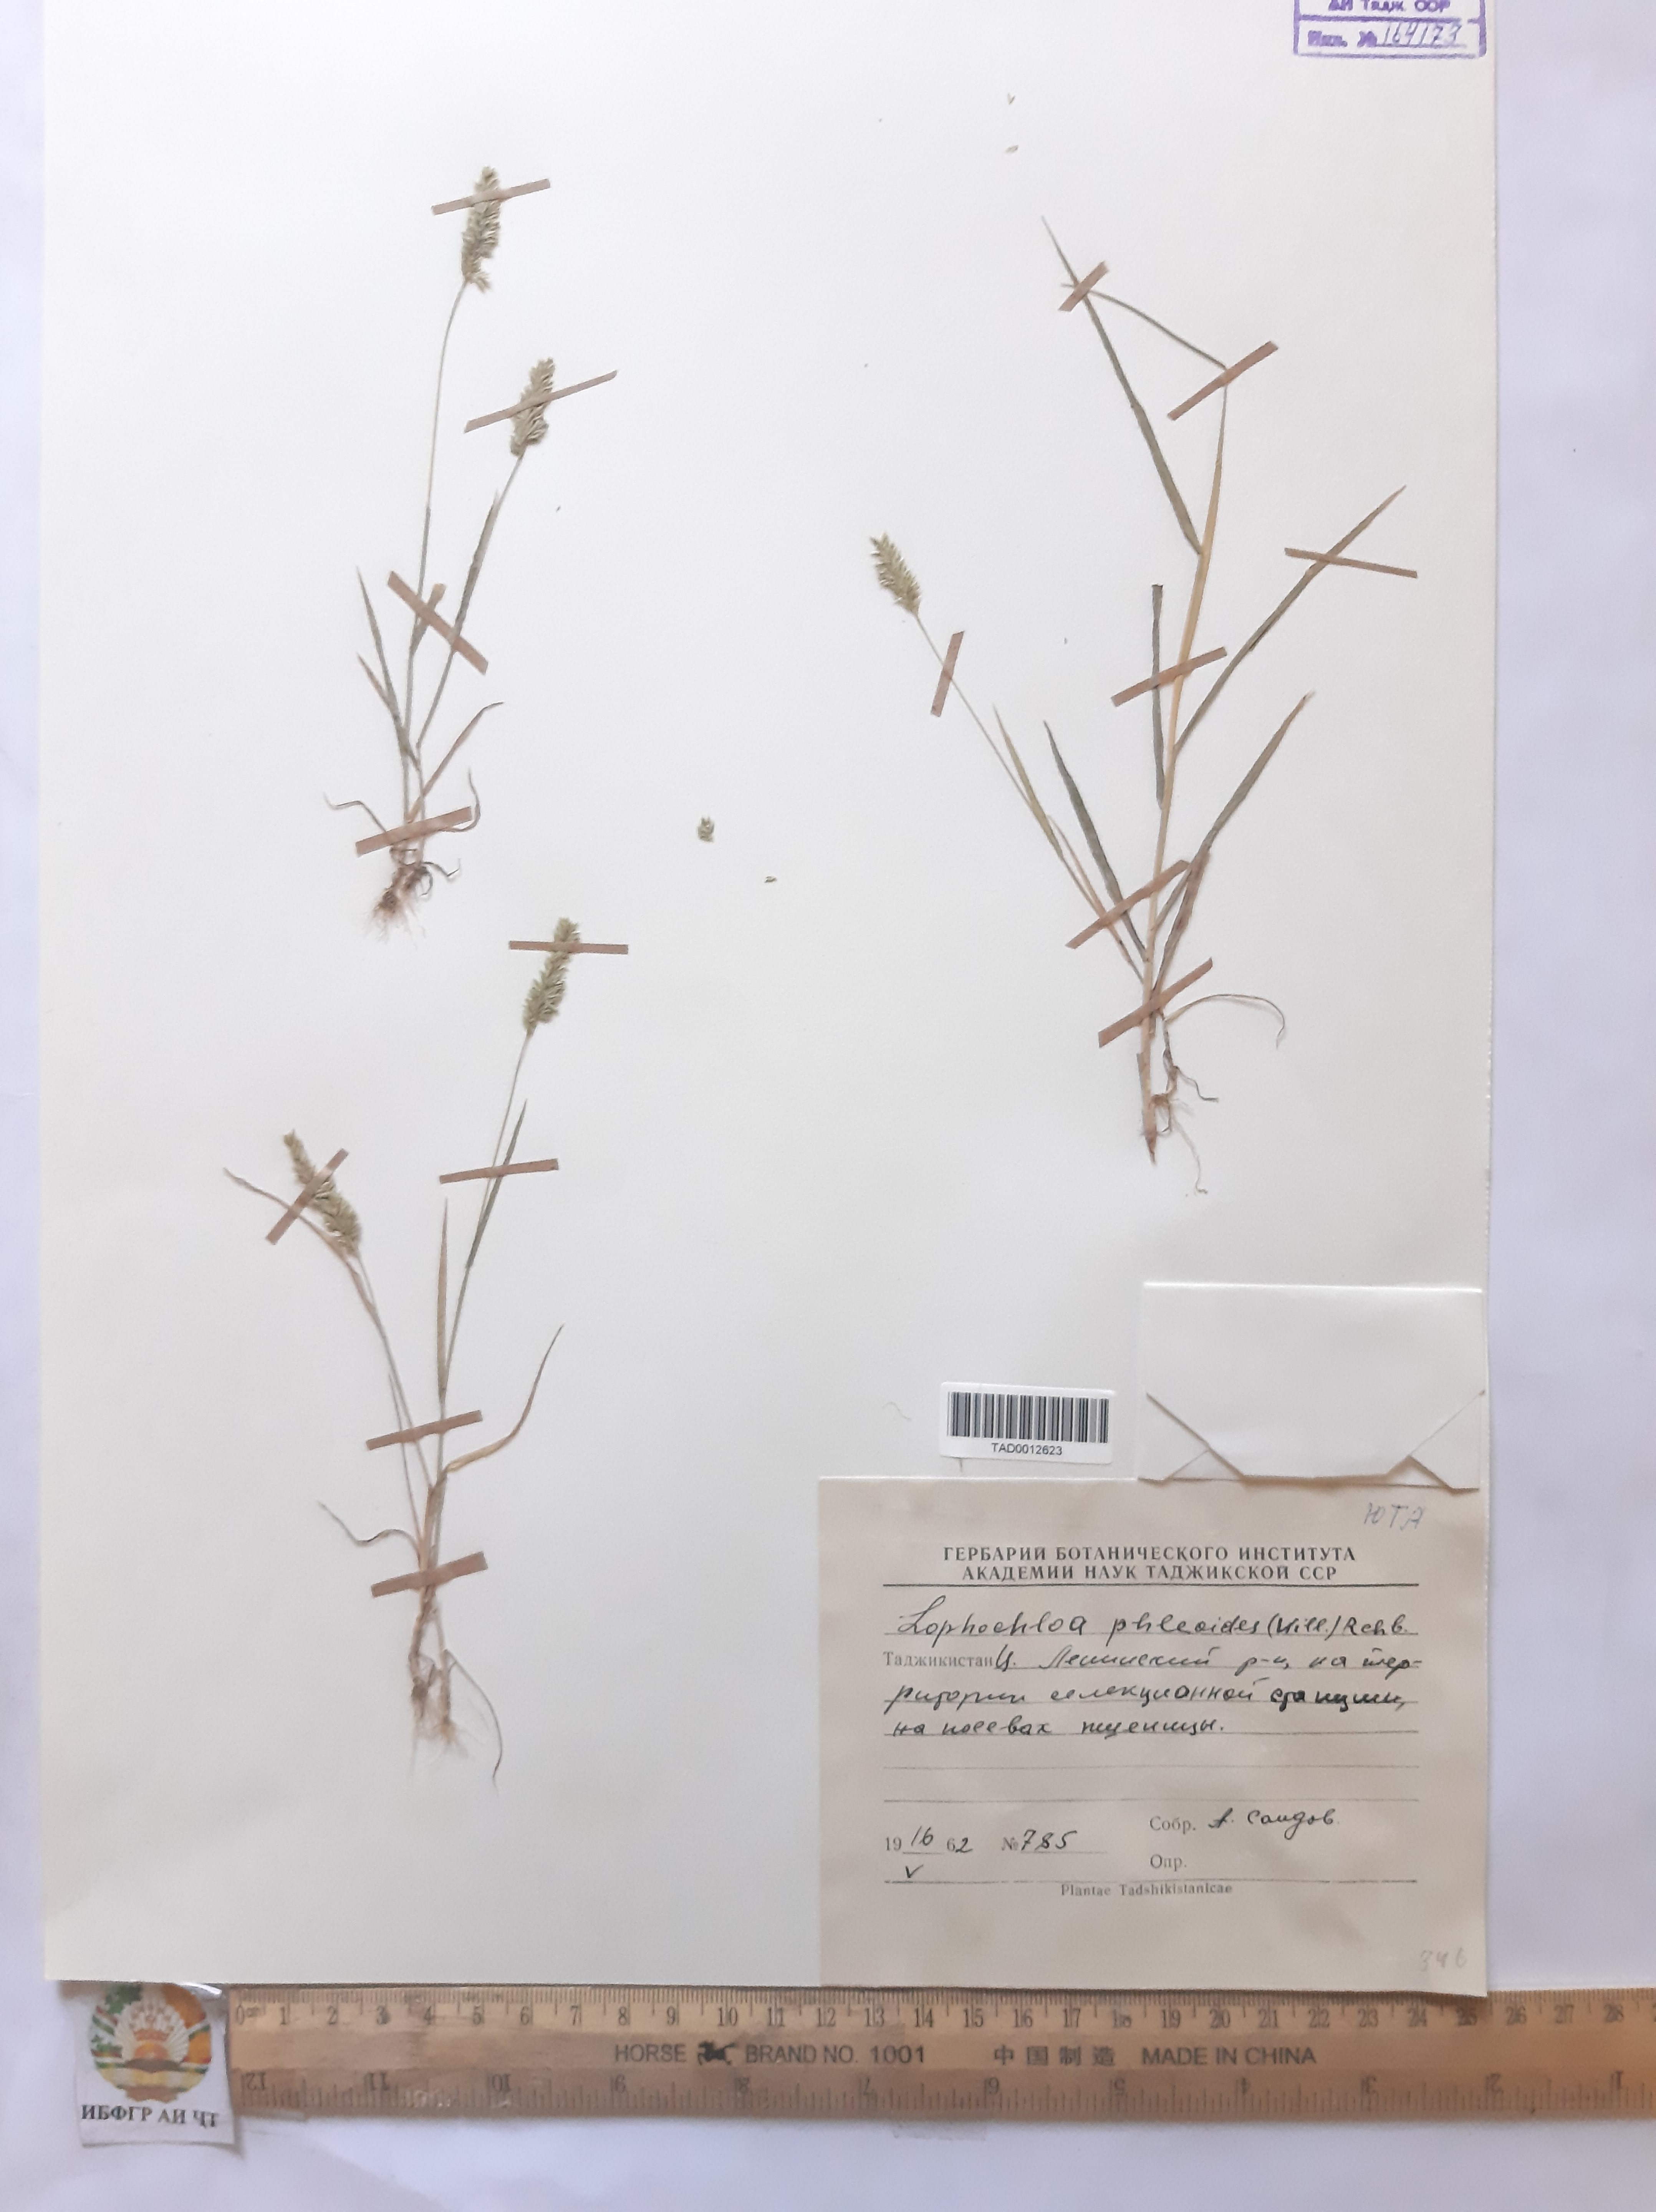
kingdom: Plantae
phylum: Tracheophyta
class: Liliopsida
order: Poales
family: Poaceae
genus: Rostraria
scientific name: Rostraria cristata
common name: Mediterranean hair-grass
